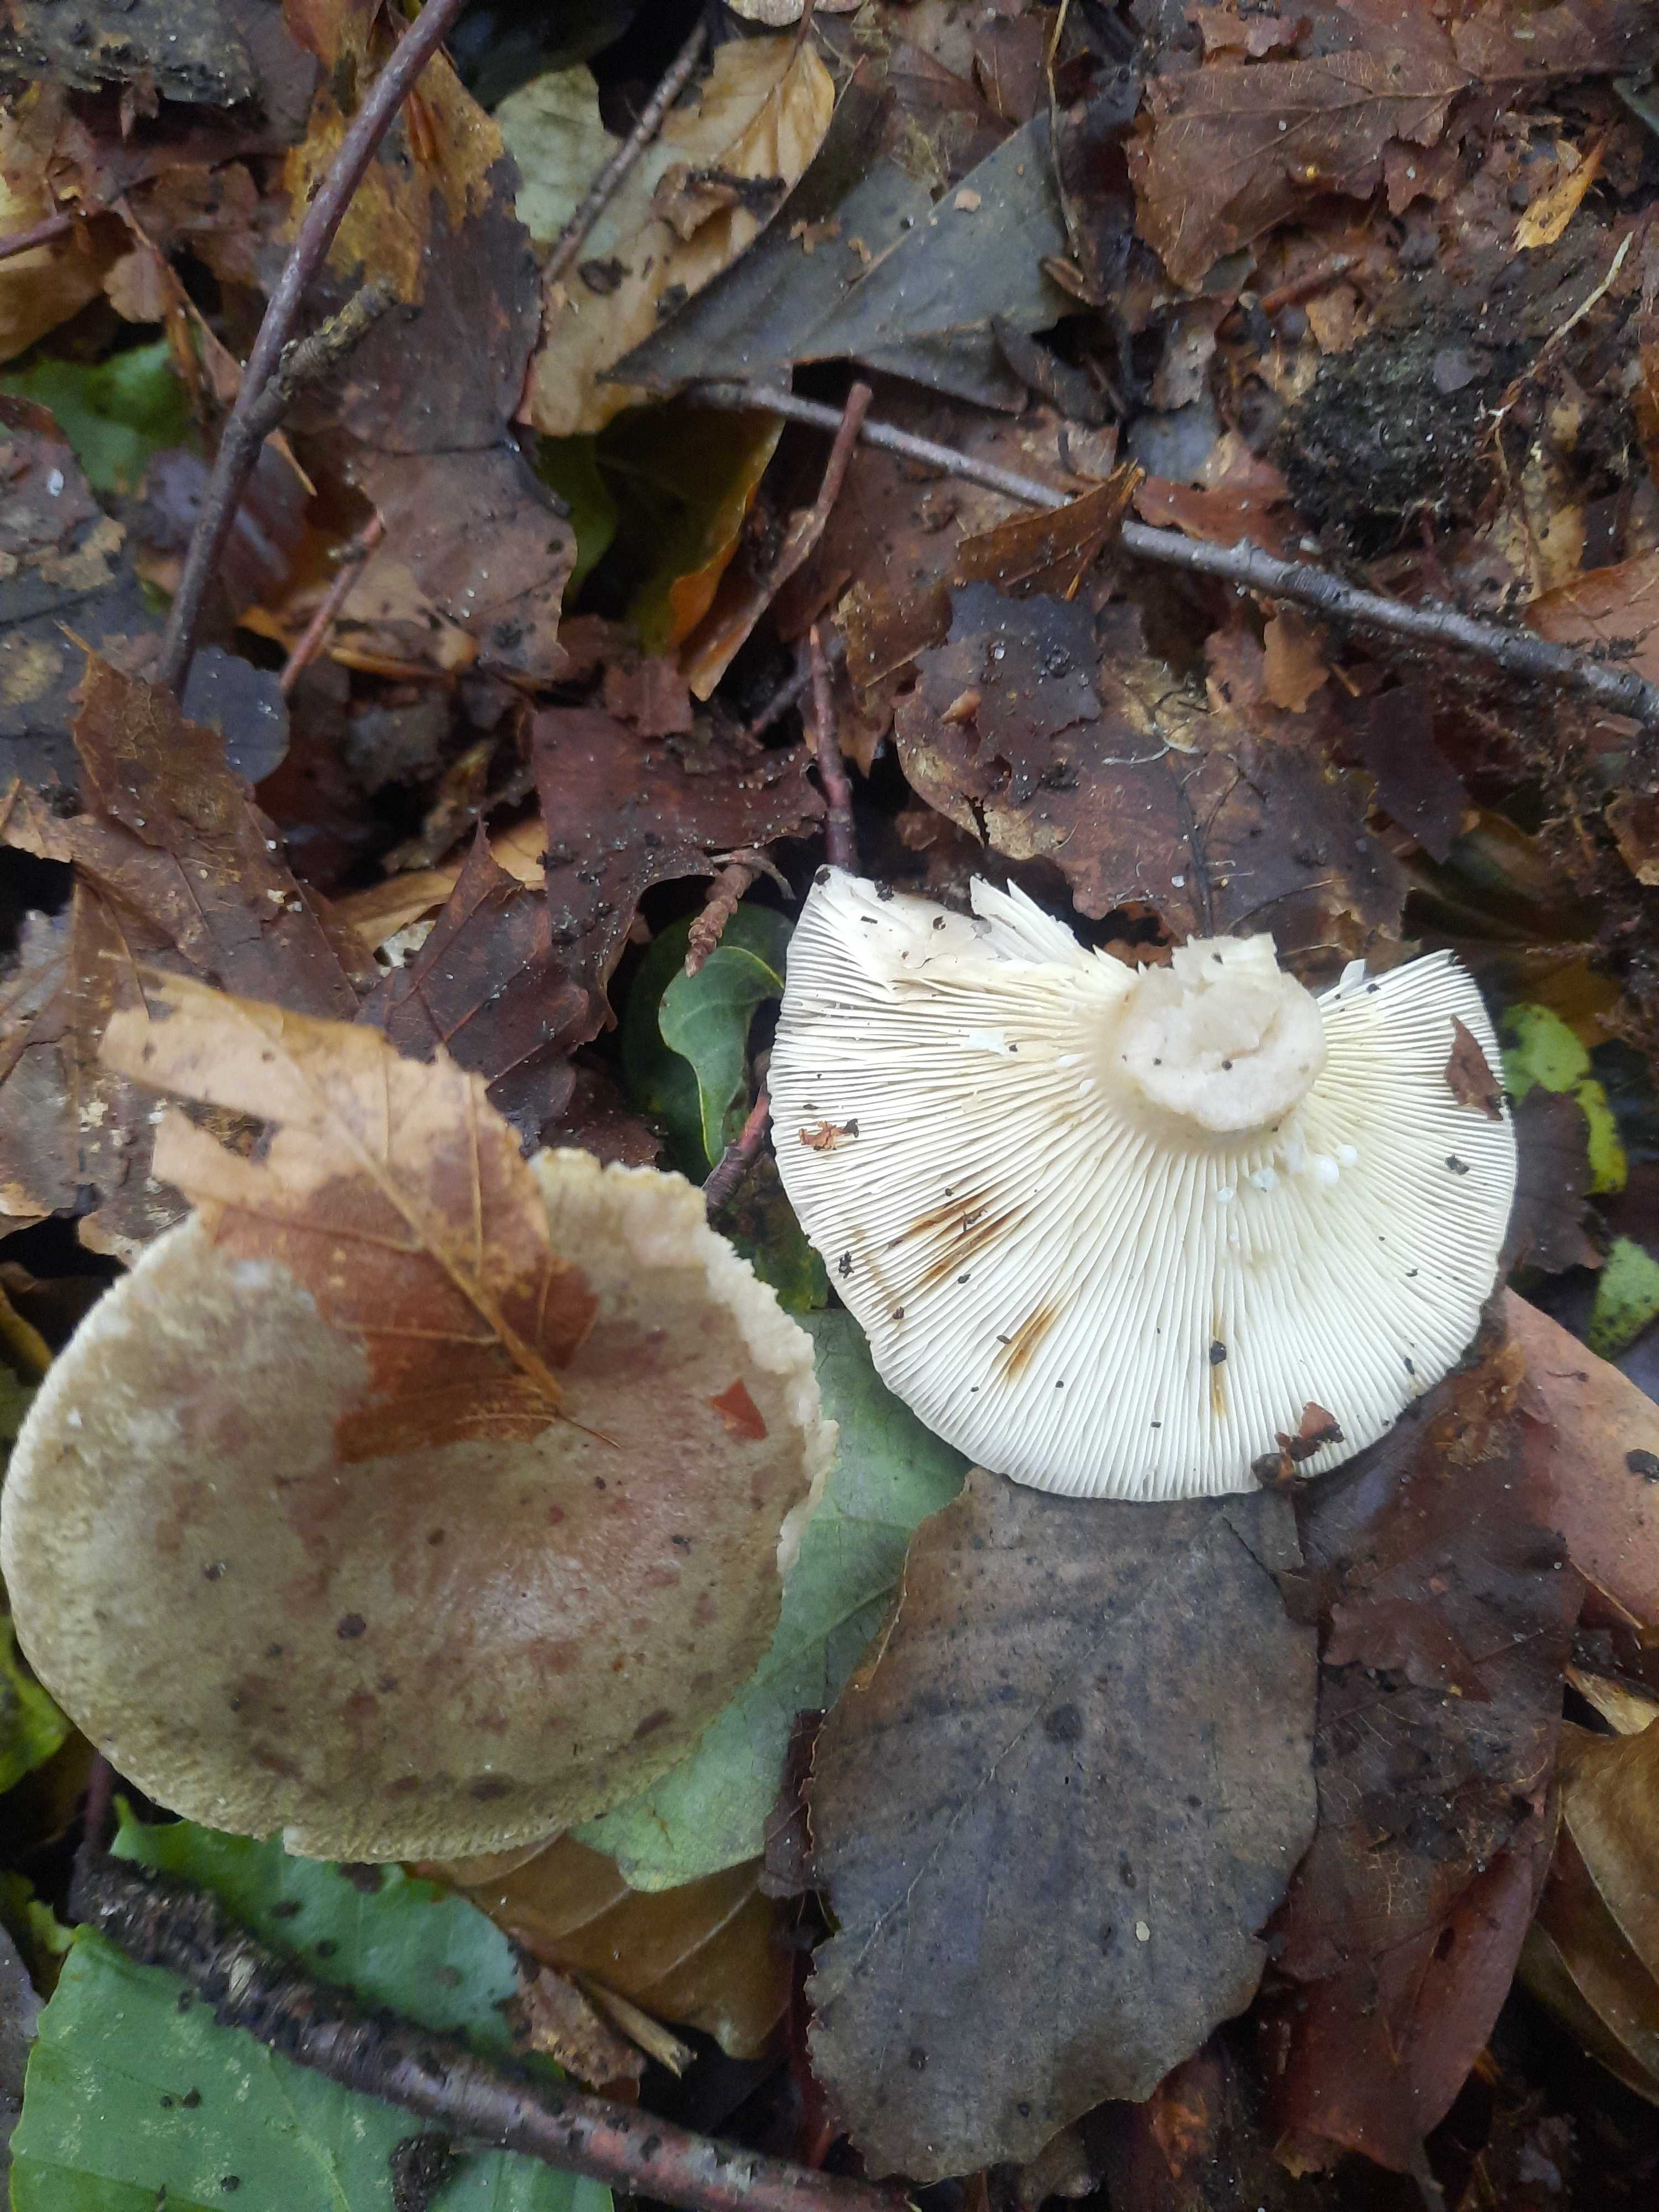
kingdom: Fungi
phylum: Basidiomycota
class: Agaricomycetes
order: Russulales
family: Russulaceae
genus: Lactarius
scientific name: Lactarius blennius
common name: dråbeplettet mælkehat
